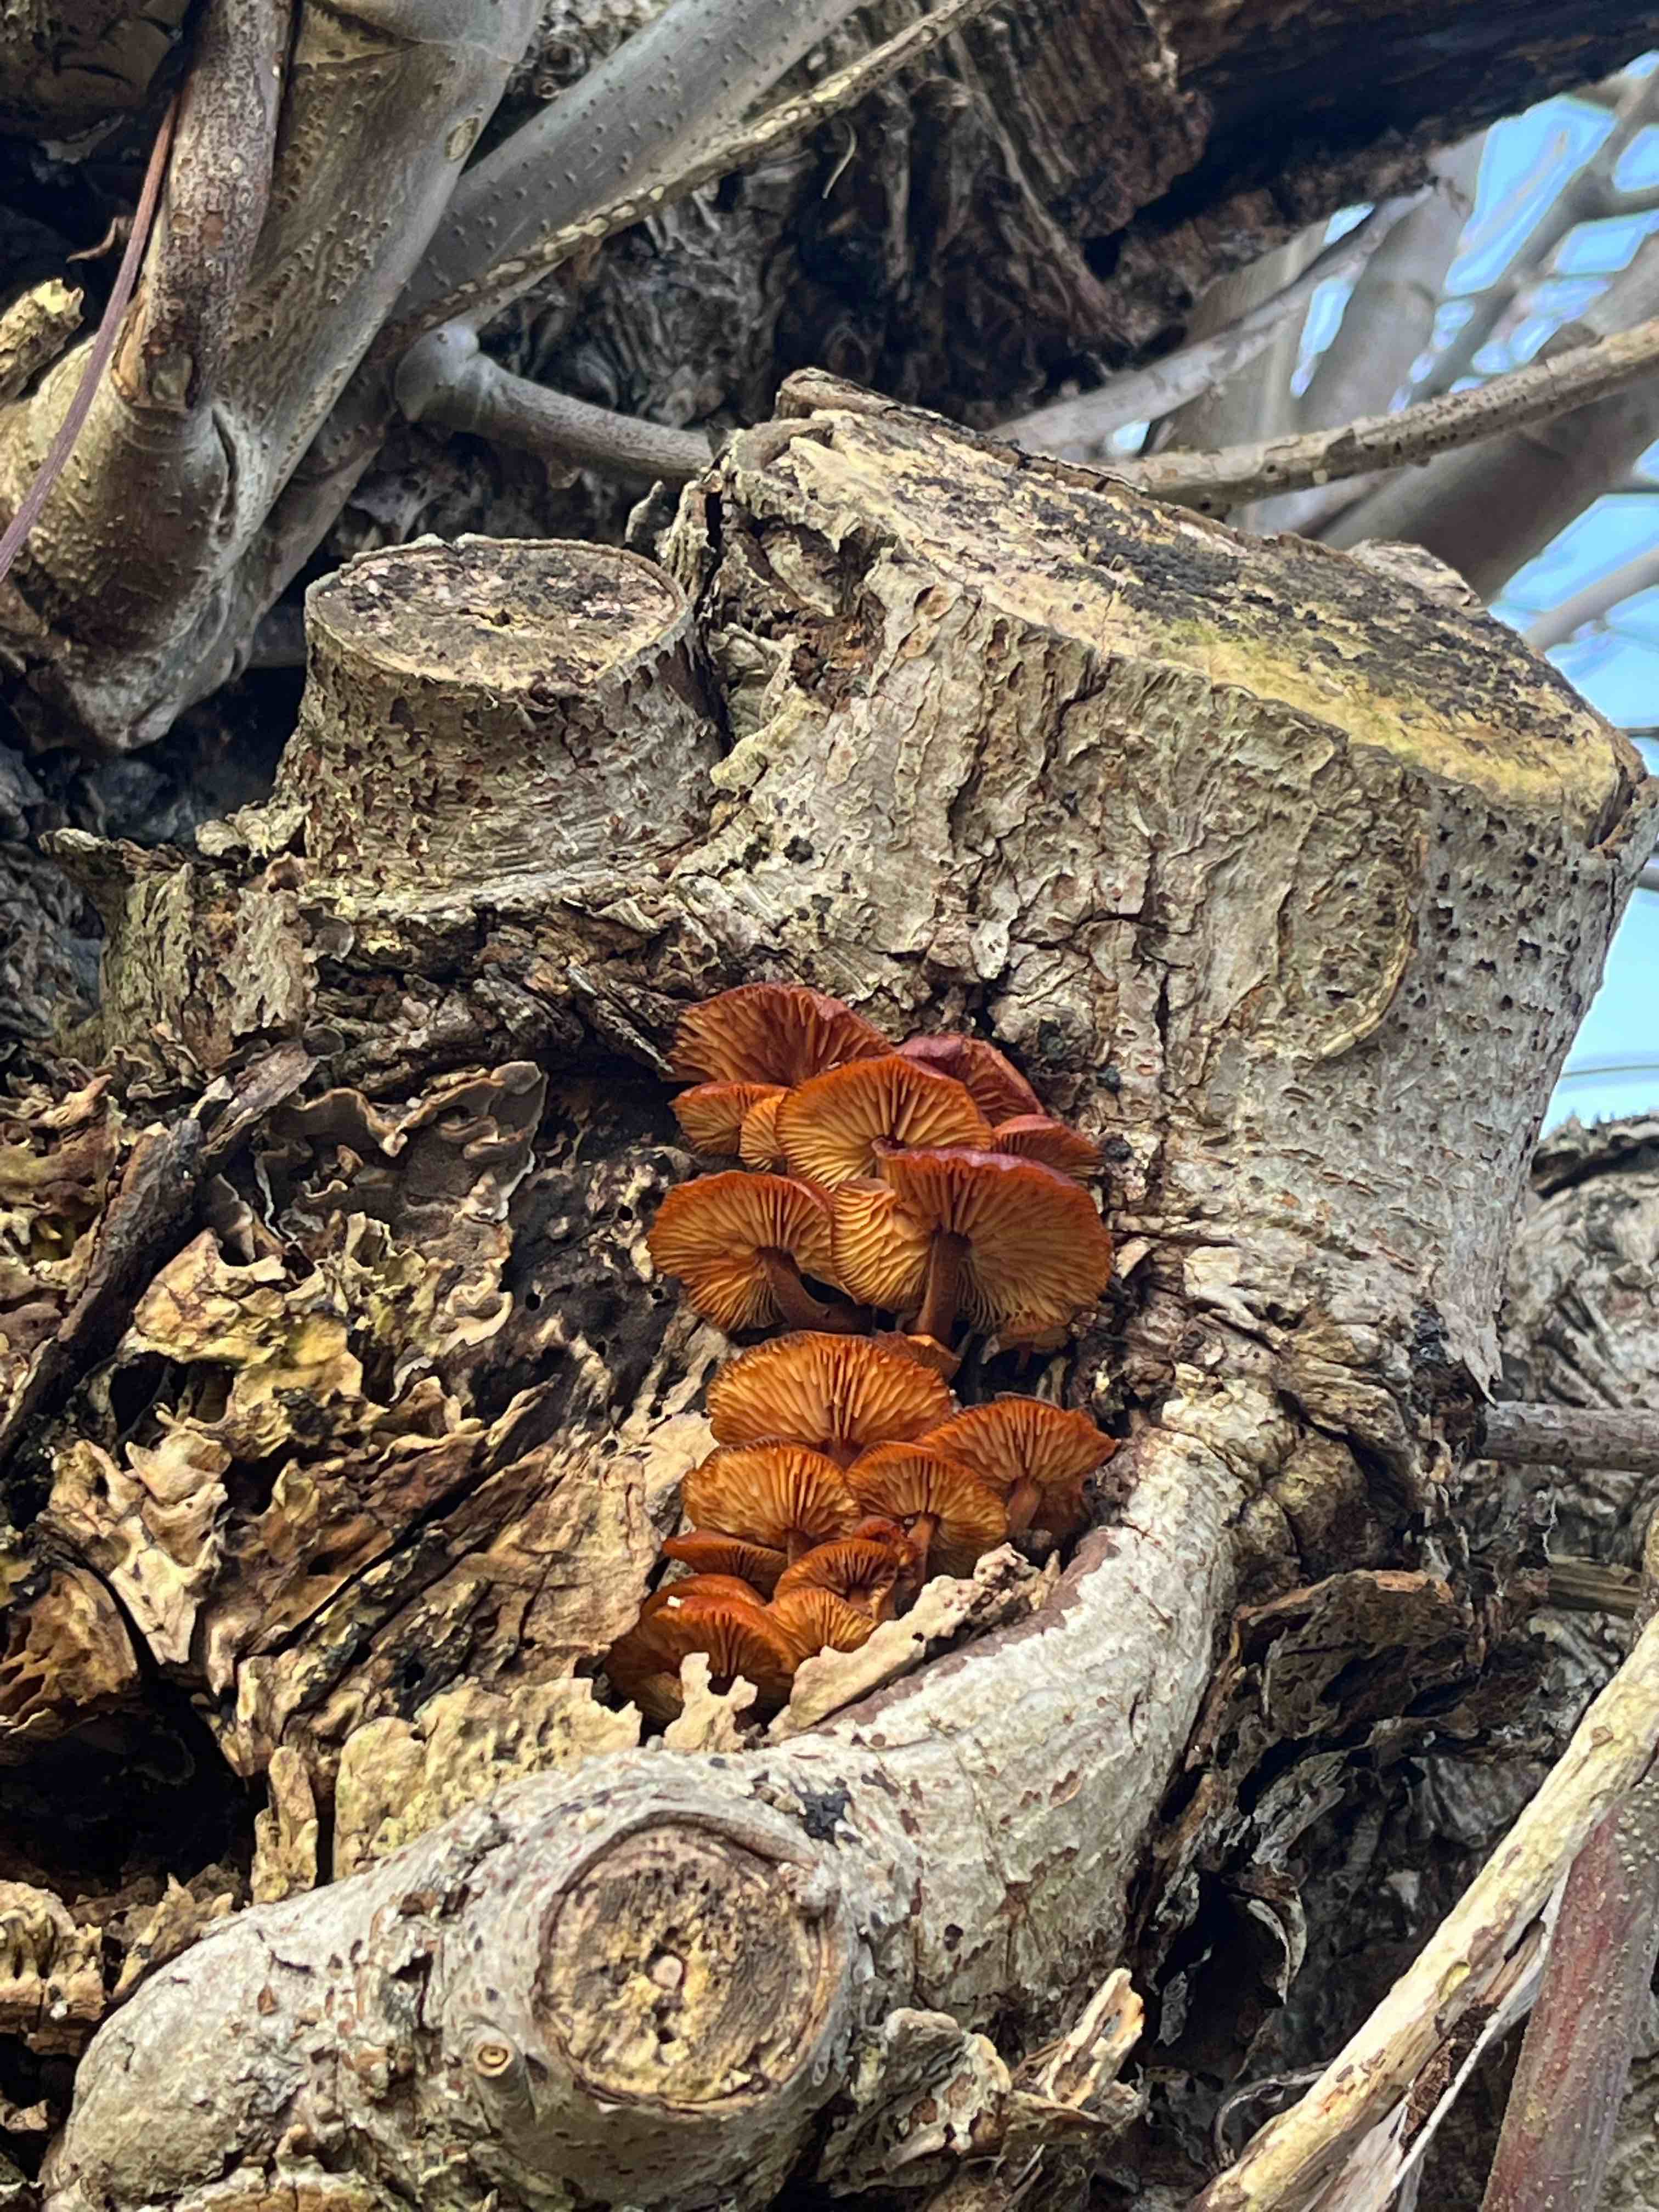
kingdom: Fungi
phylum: Basidiomycota
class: Agaricomycetes
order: Agaricales
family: Physalacriaceae
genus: Flammulina
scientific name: Flammulina velutipes
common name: gul fløjlsfod
